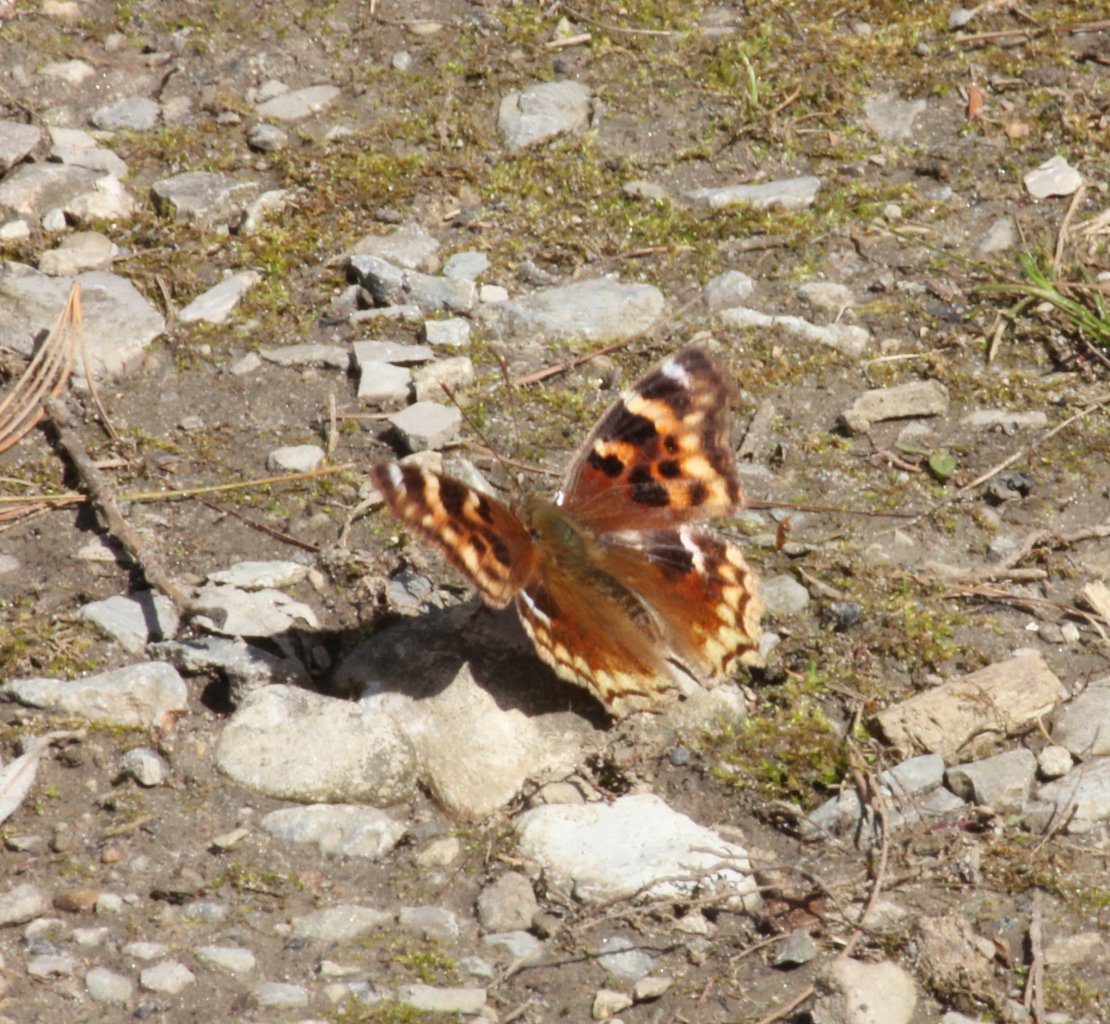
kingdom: Animalia
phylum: Arthropoda
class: Insecta
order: Lepidoptera
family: Nymphalidae
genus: Polygonia
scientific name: Polygonia vaualbum
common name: Compton Tortoiseshell
